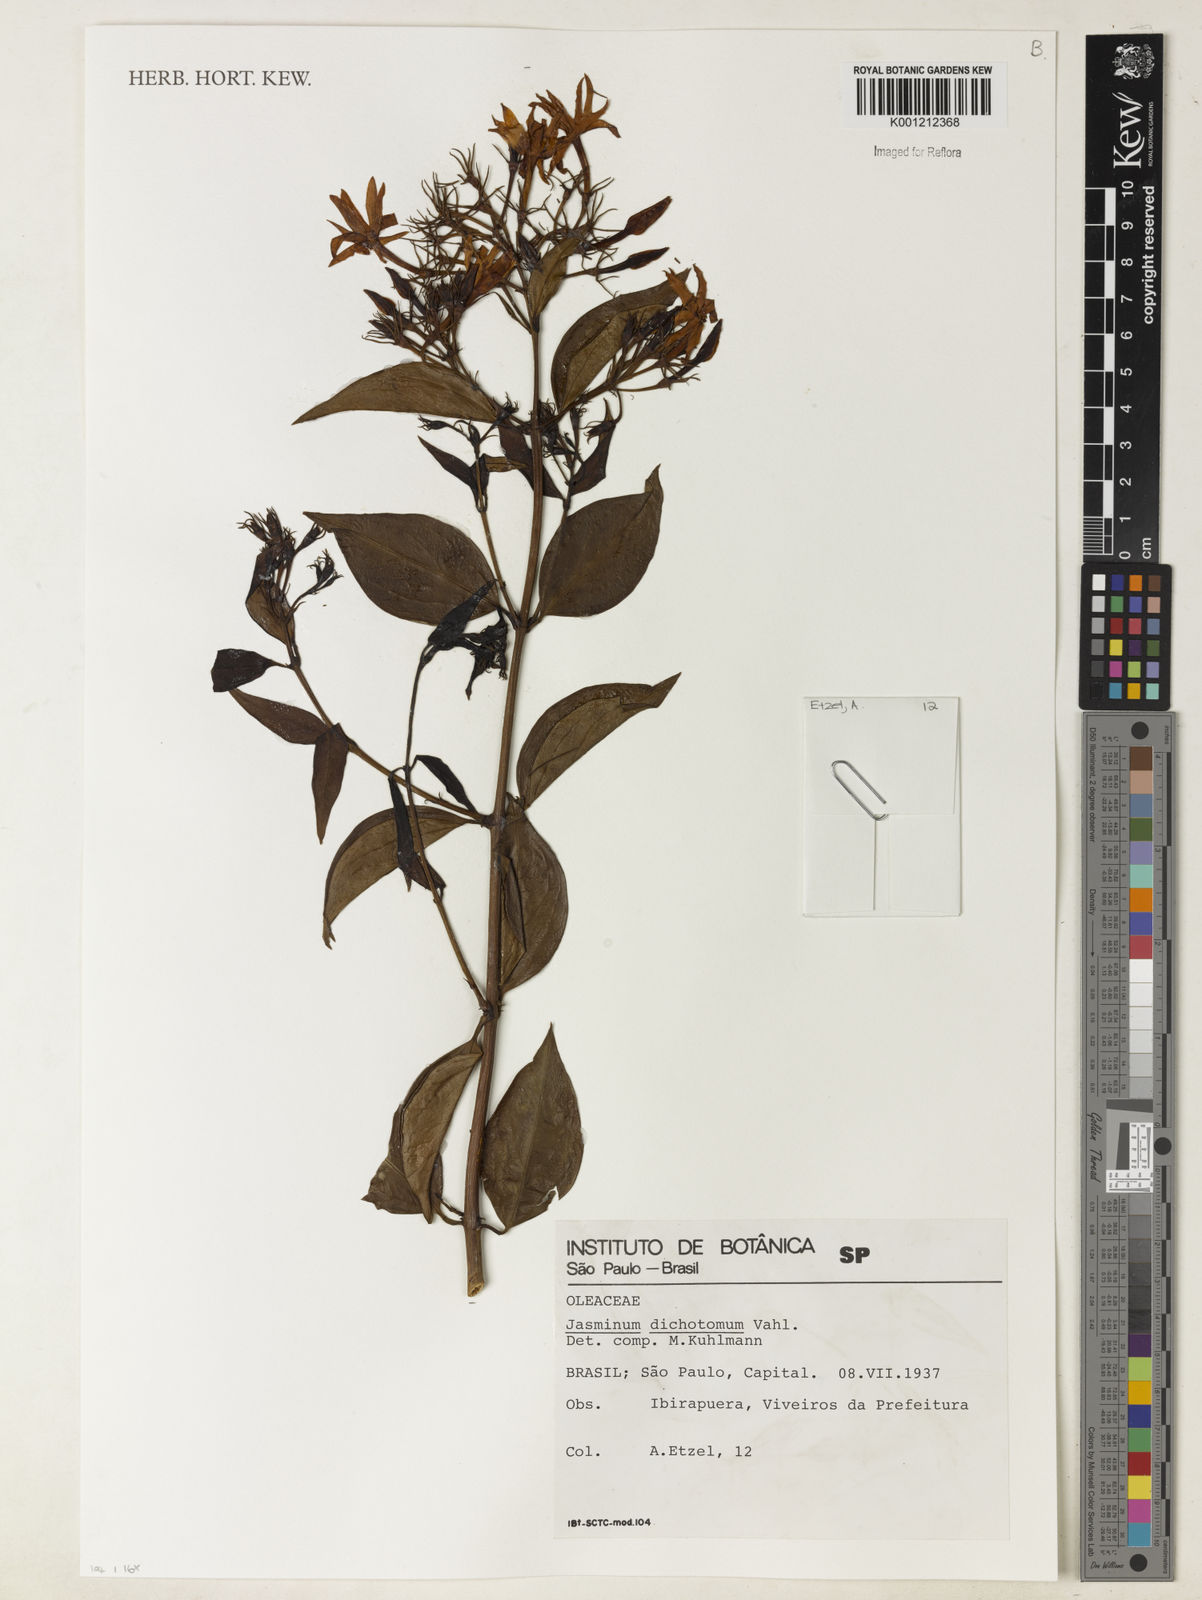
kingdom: Plantae
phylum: Tracheophyta
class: Magnoliopsida
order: Lamiales
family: Oleaceae
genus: Jasminum
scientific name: Jasminum dichotomum
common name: Gold coast jasmine
